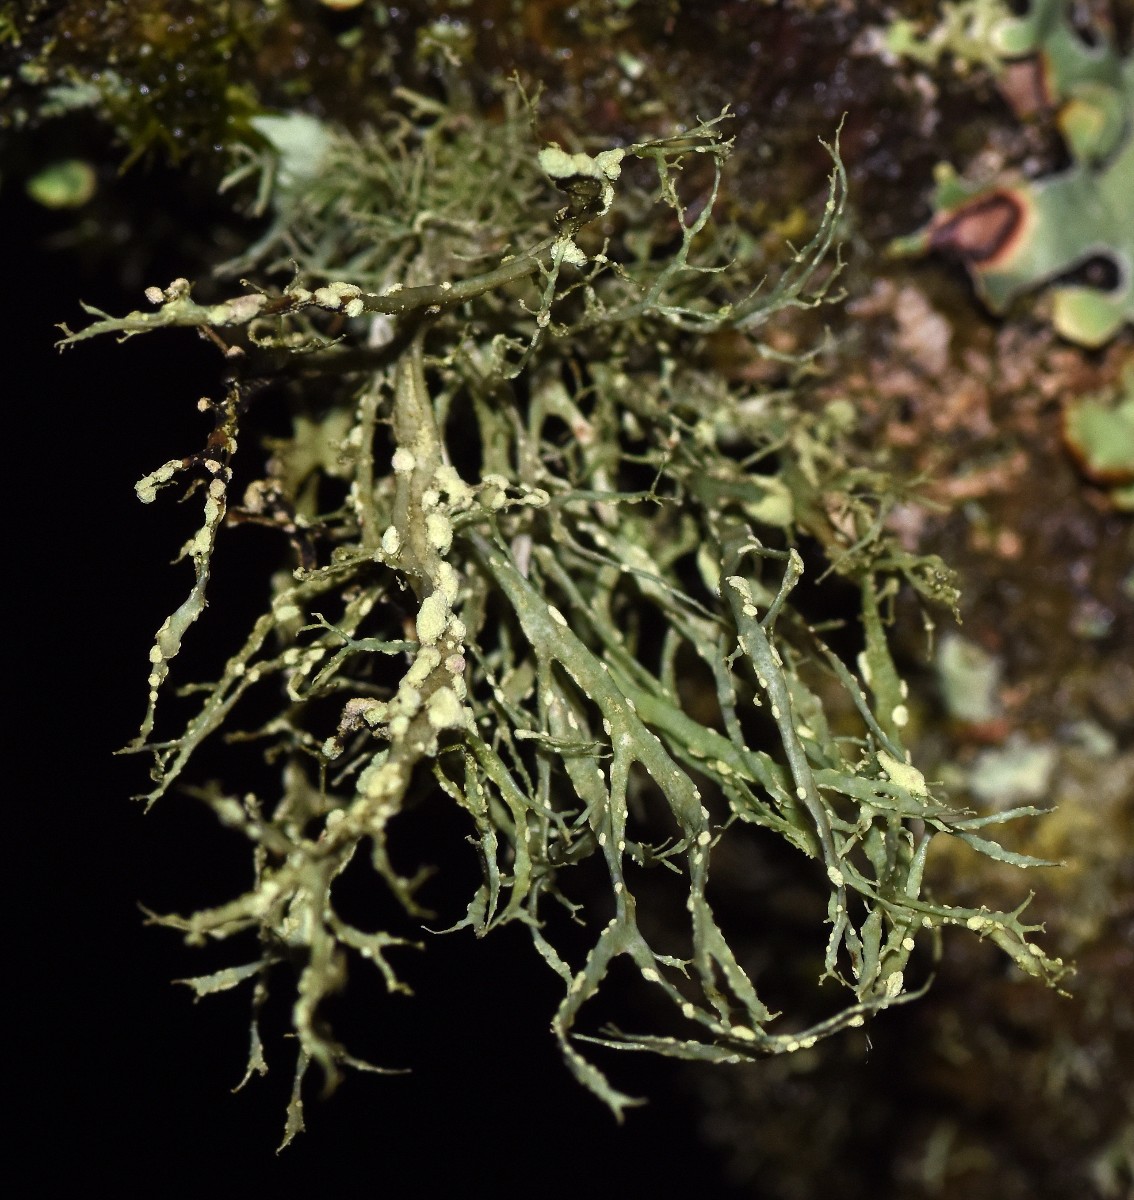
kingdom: Fungi
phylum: Ascomycota
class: Lecanoromycetes
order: Lecanorales
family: Ramalinaceae
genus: Ramalina
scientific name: Ramalina farinacea
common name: melet grenlav
